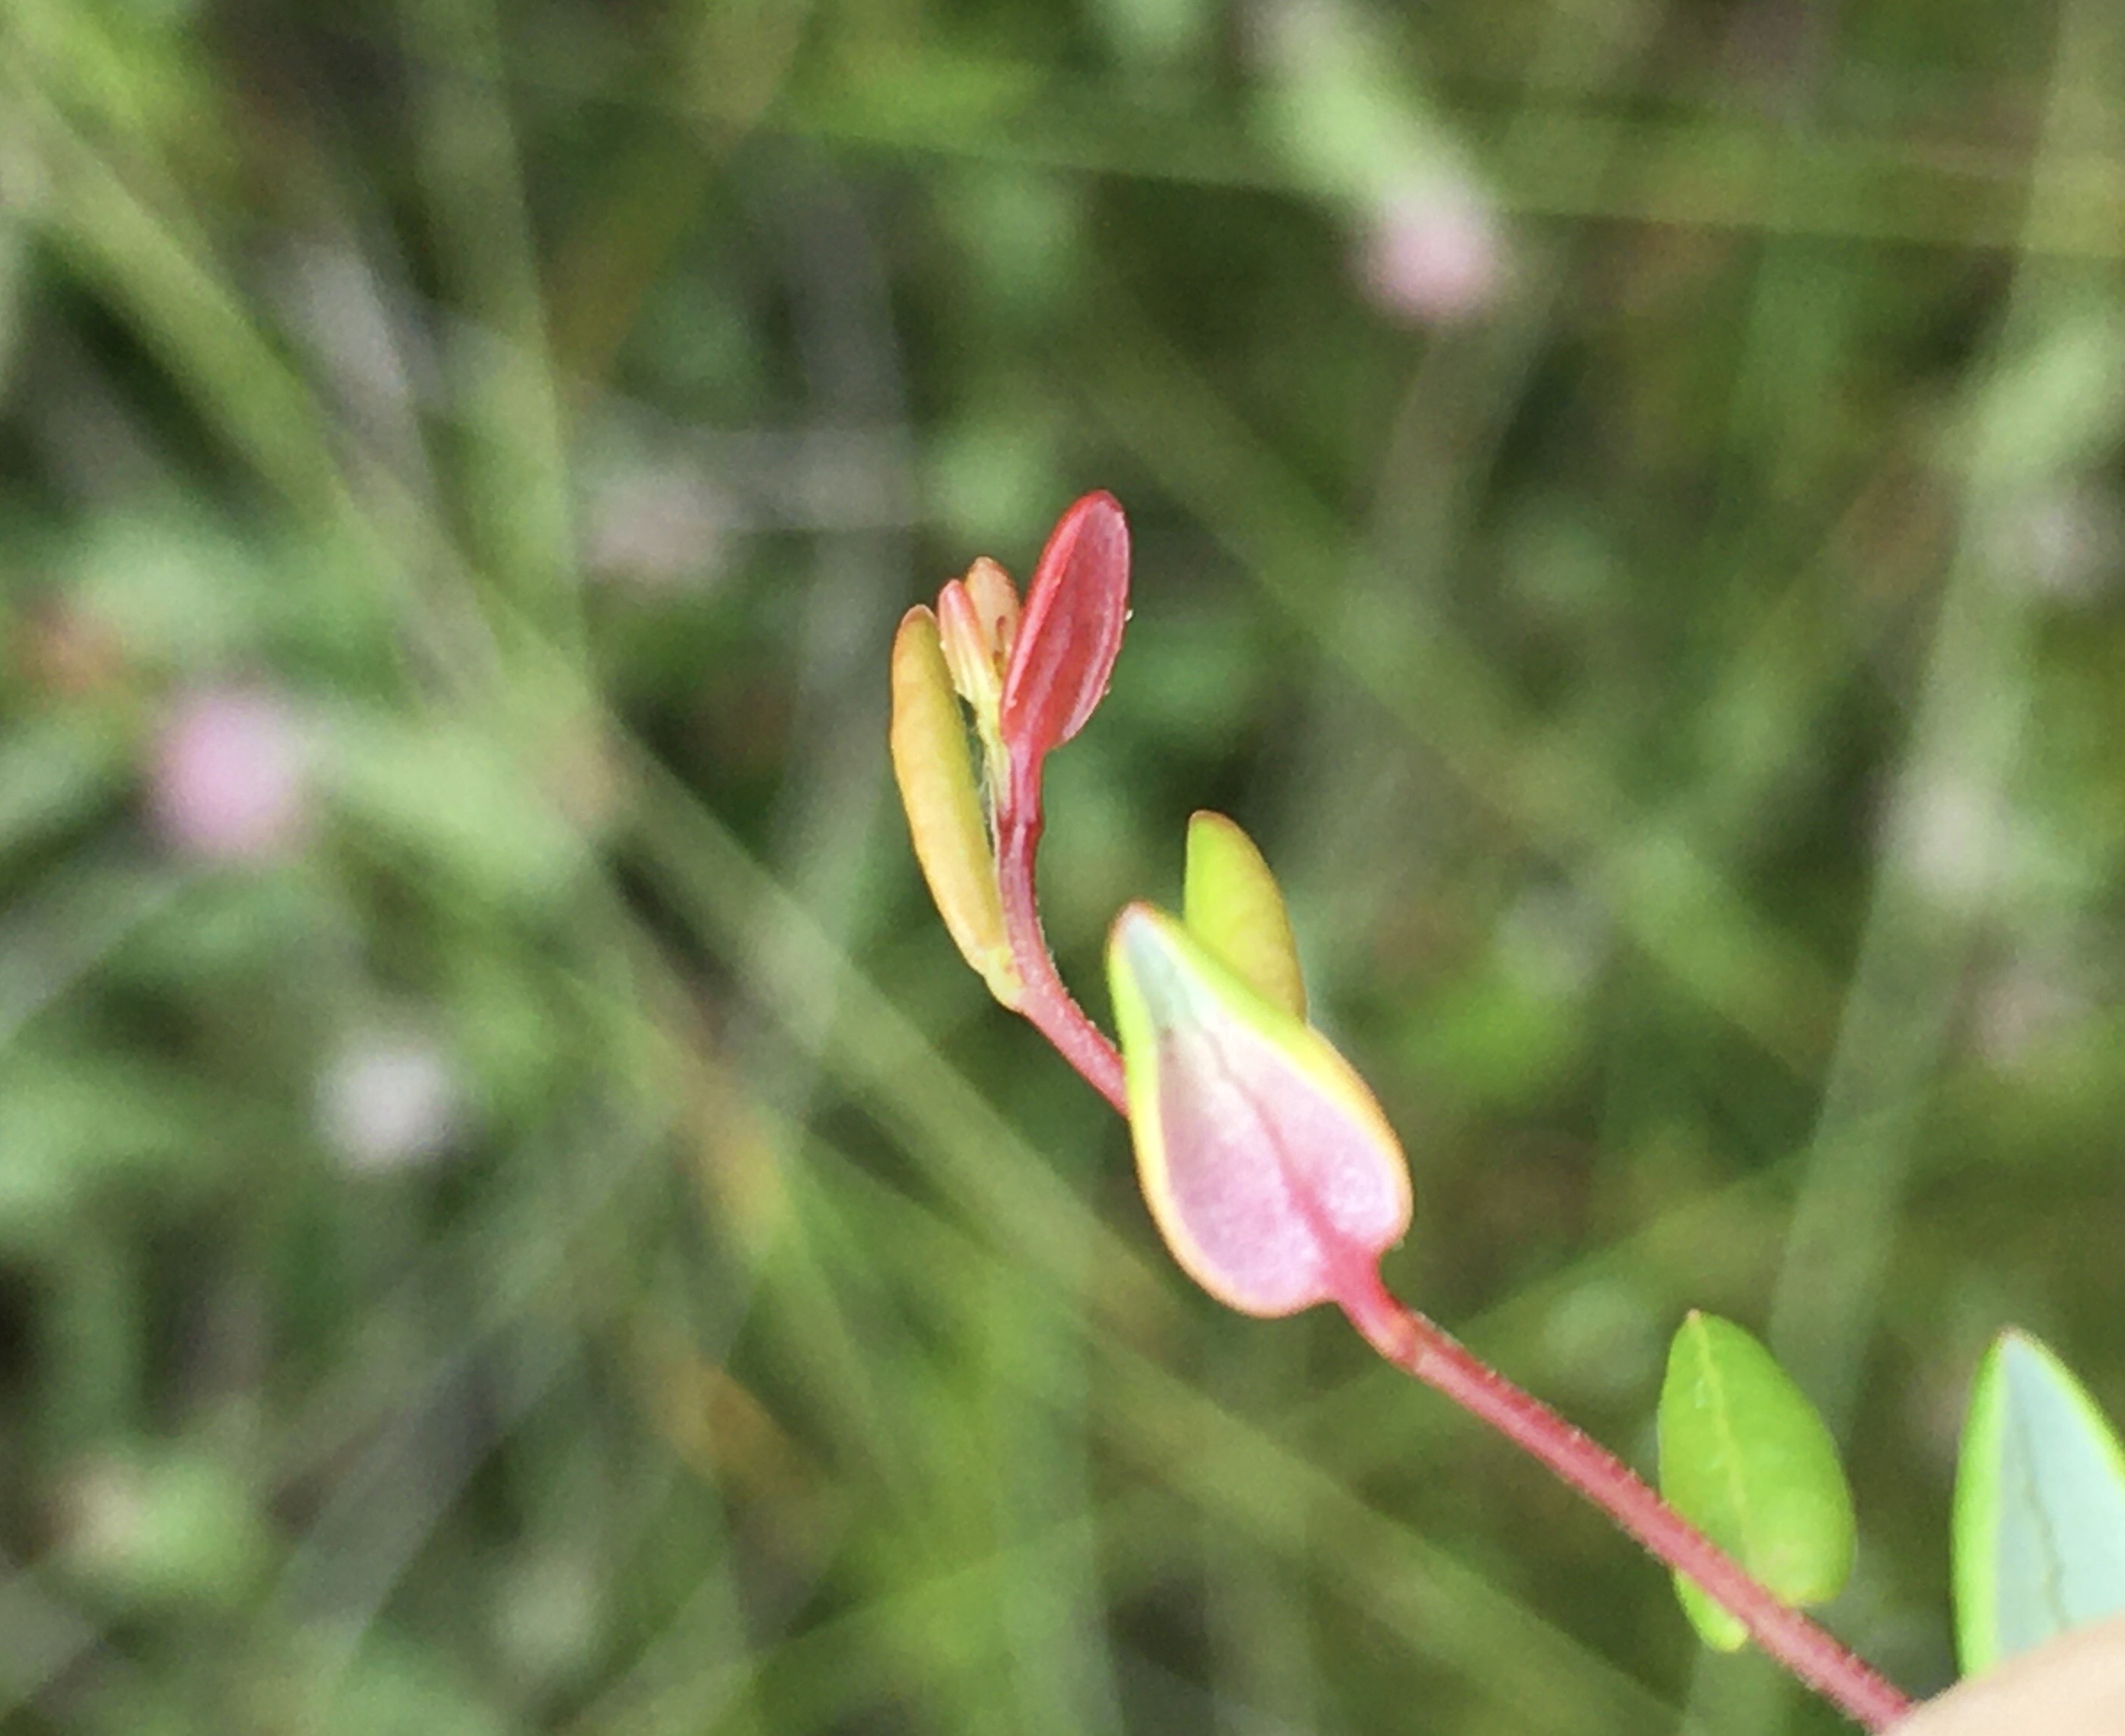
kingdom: Fungi
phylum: Basidiomycota
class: Exobasidiomycetes
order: Exobasidiales
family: Exobasidiaceae
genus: Exobasidium
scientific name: Exobasidium rostrupii
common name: tranebærblad-bøllesvamp
